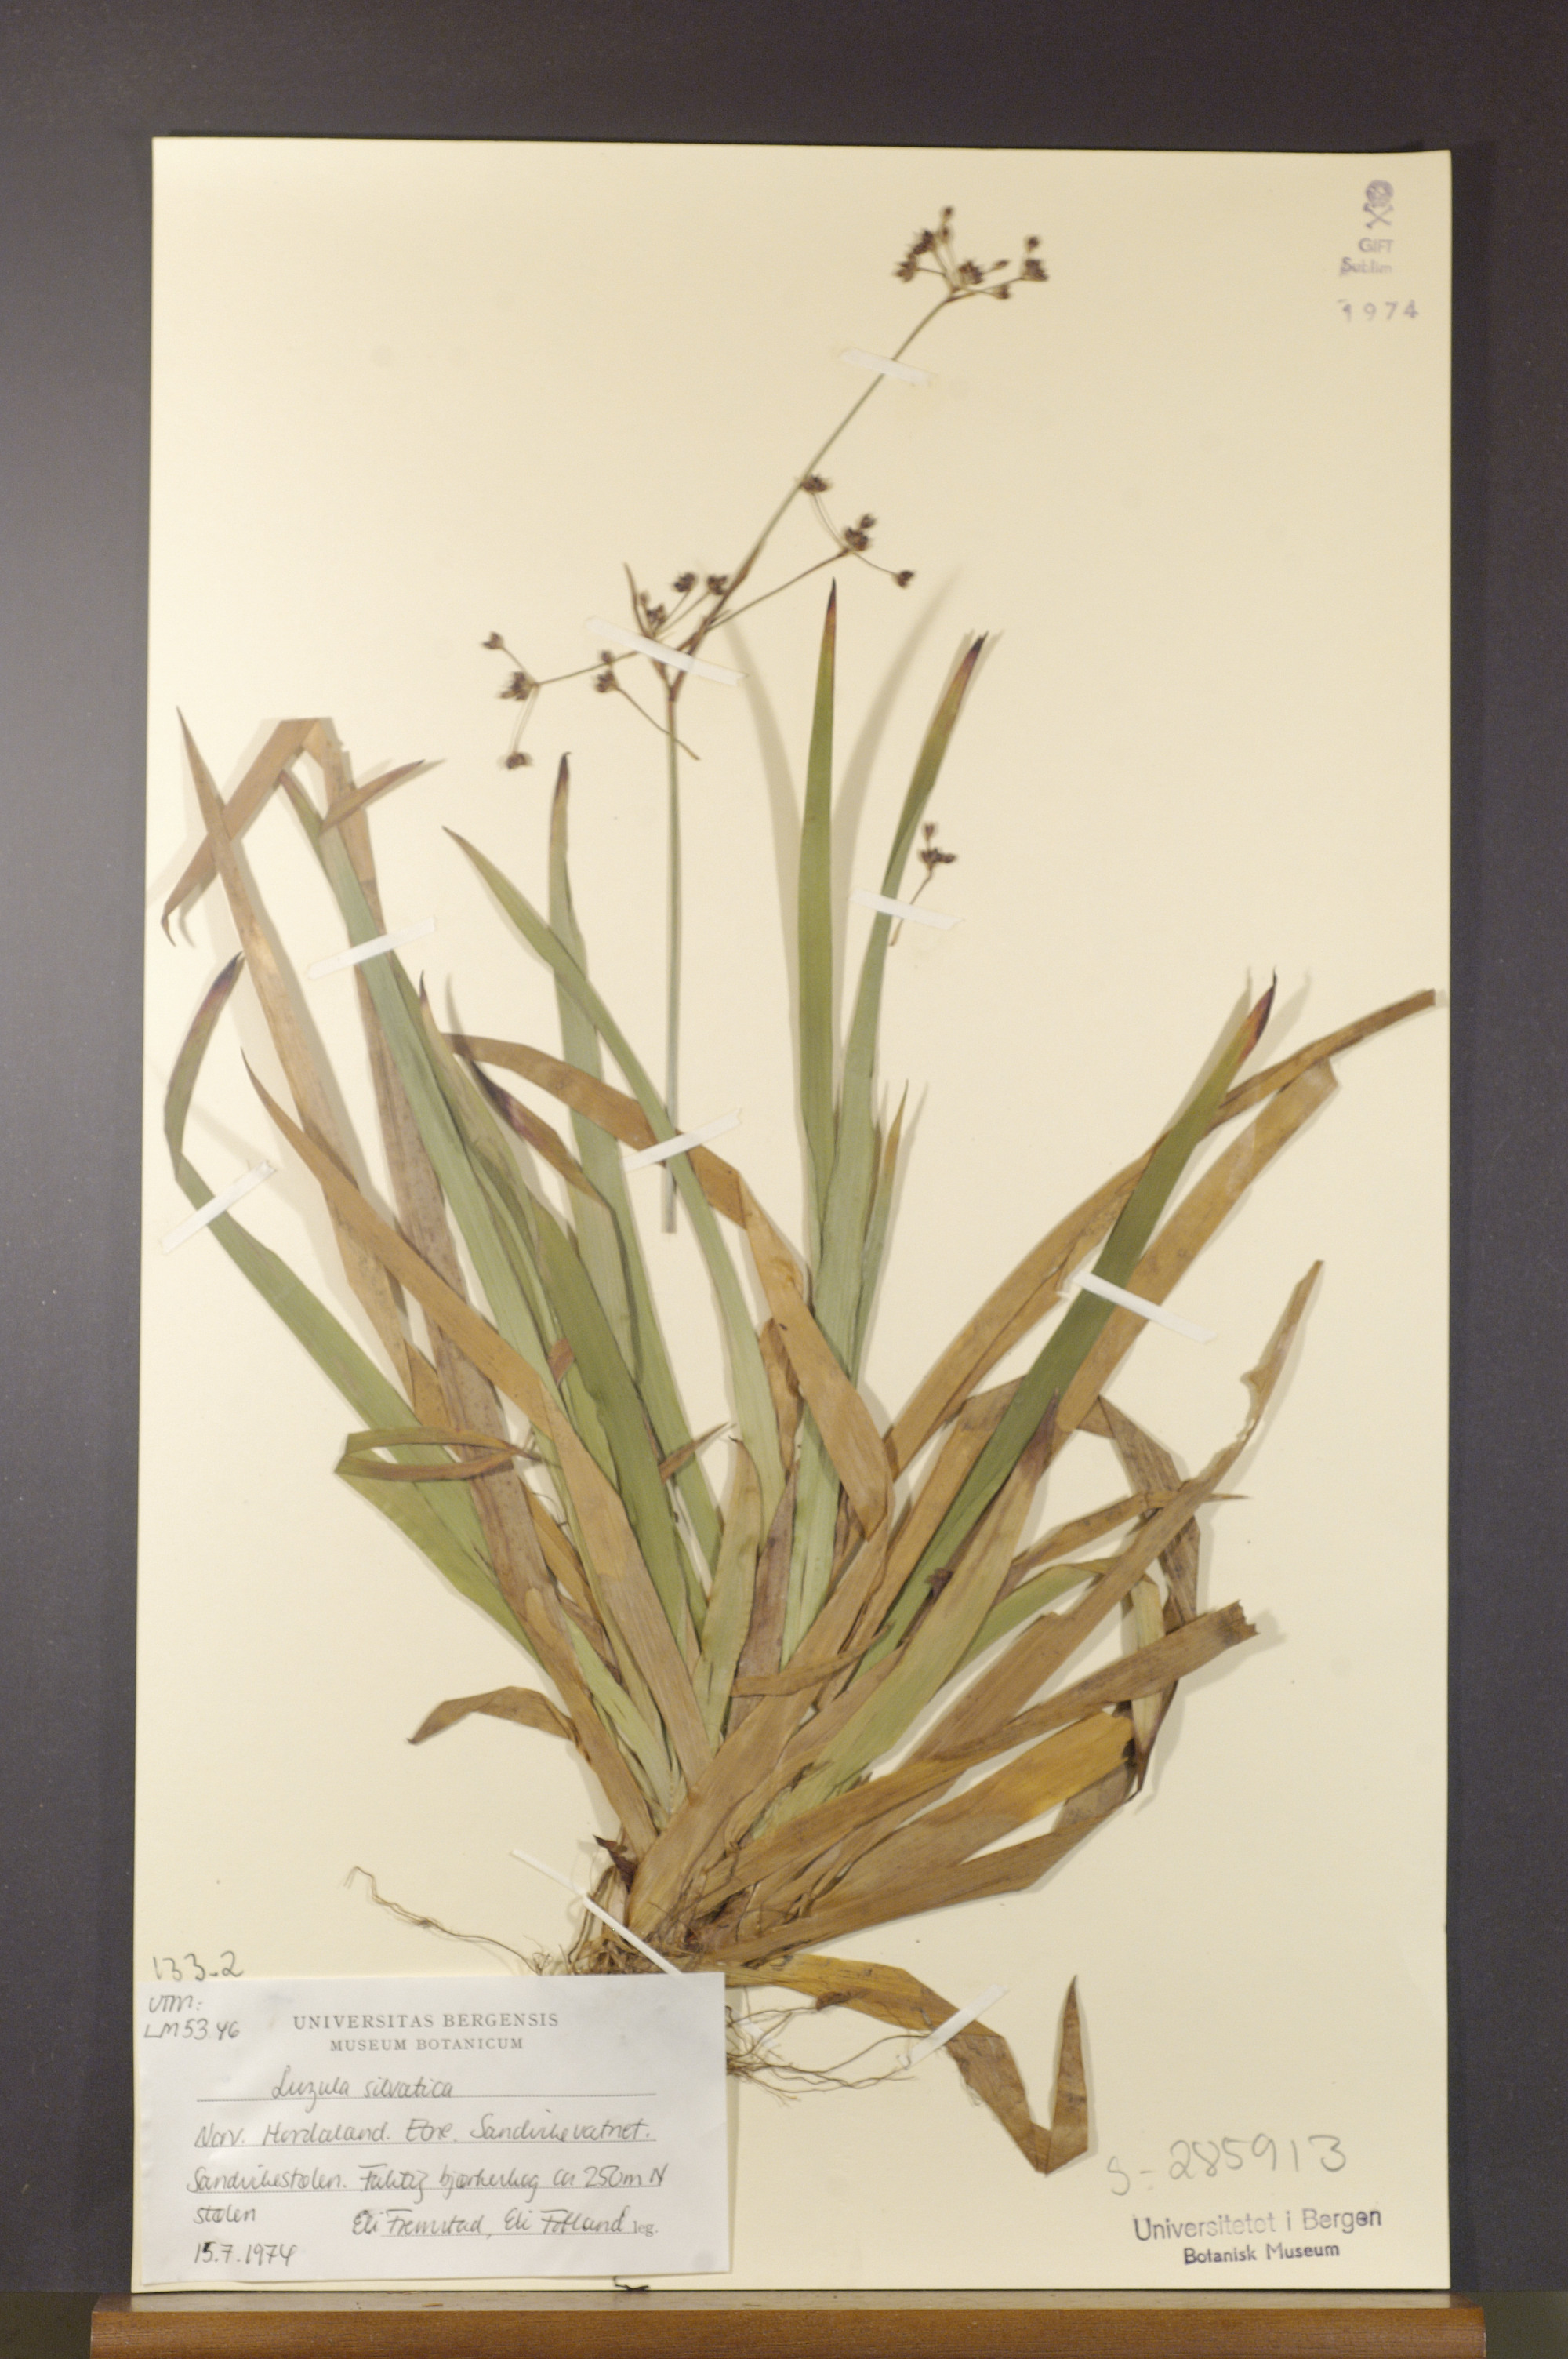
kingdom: Plantae
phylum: Tracheophyta
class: Liliopsida
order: Poales
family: Juncaceae
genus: Luzula
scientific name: Luzula sylvatica
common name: Great wood-rush
